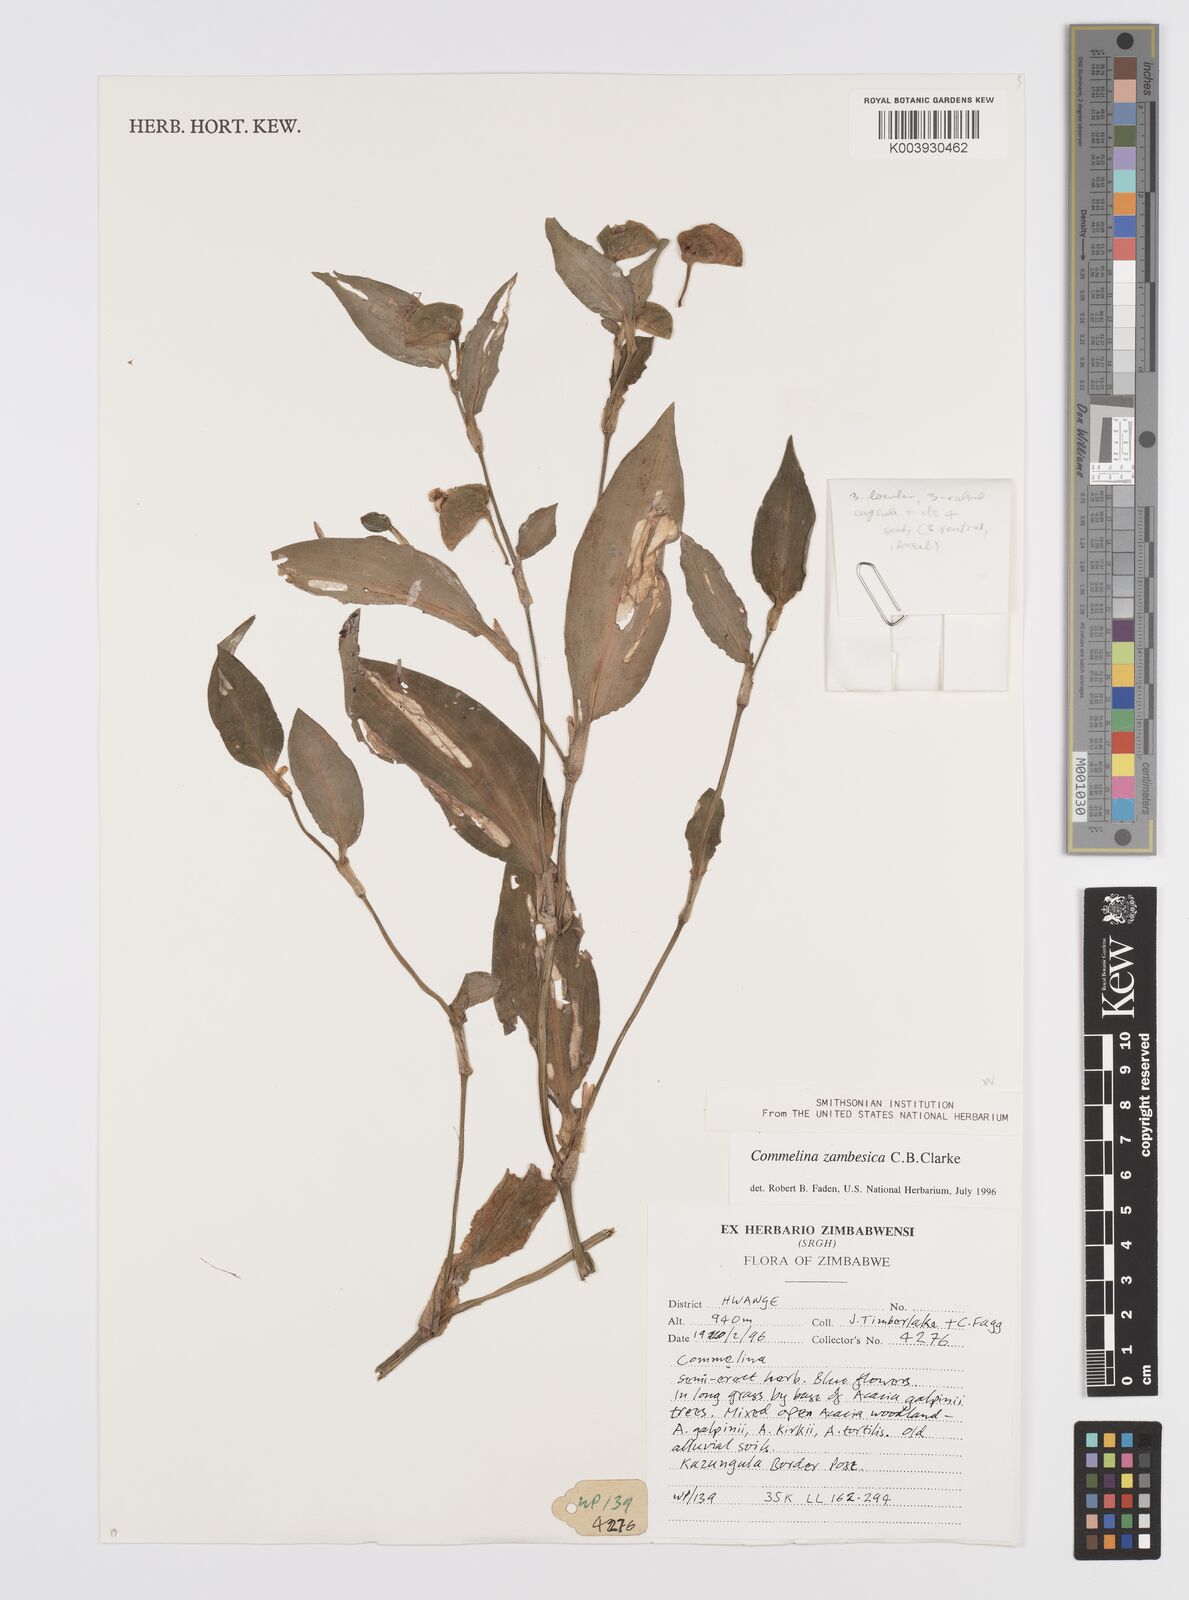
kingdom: Plantae
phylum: Tracheophyta
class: Liliopsida
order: Commelinales
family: Commelinaceae
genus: Commelina
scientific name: Commelina zambesica
